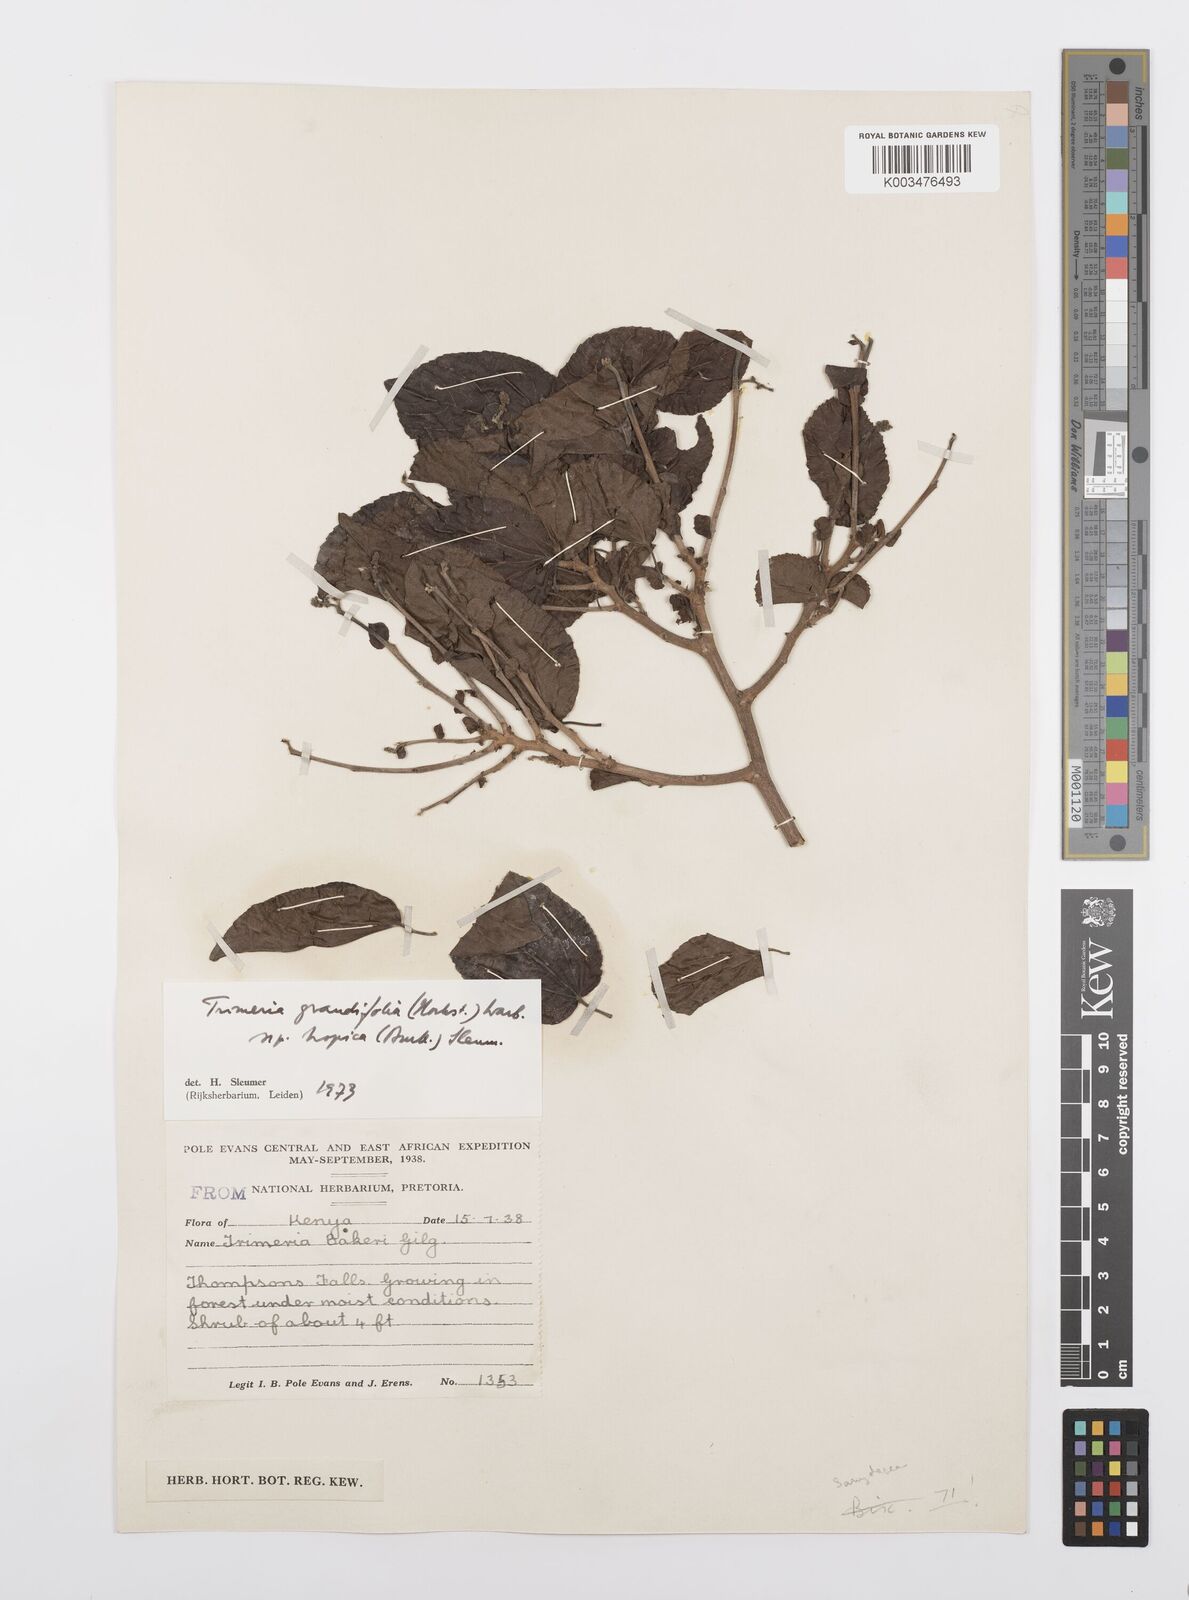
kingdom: Plantae
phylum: Tracheophyta
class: Magnoliopsida
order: Malpighiales
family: Salicaceae
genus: Trimeria
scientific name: Trimeria grandifolia
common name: Wild mulberry
